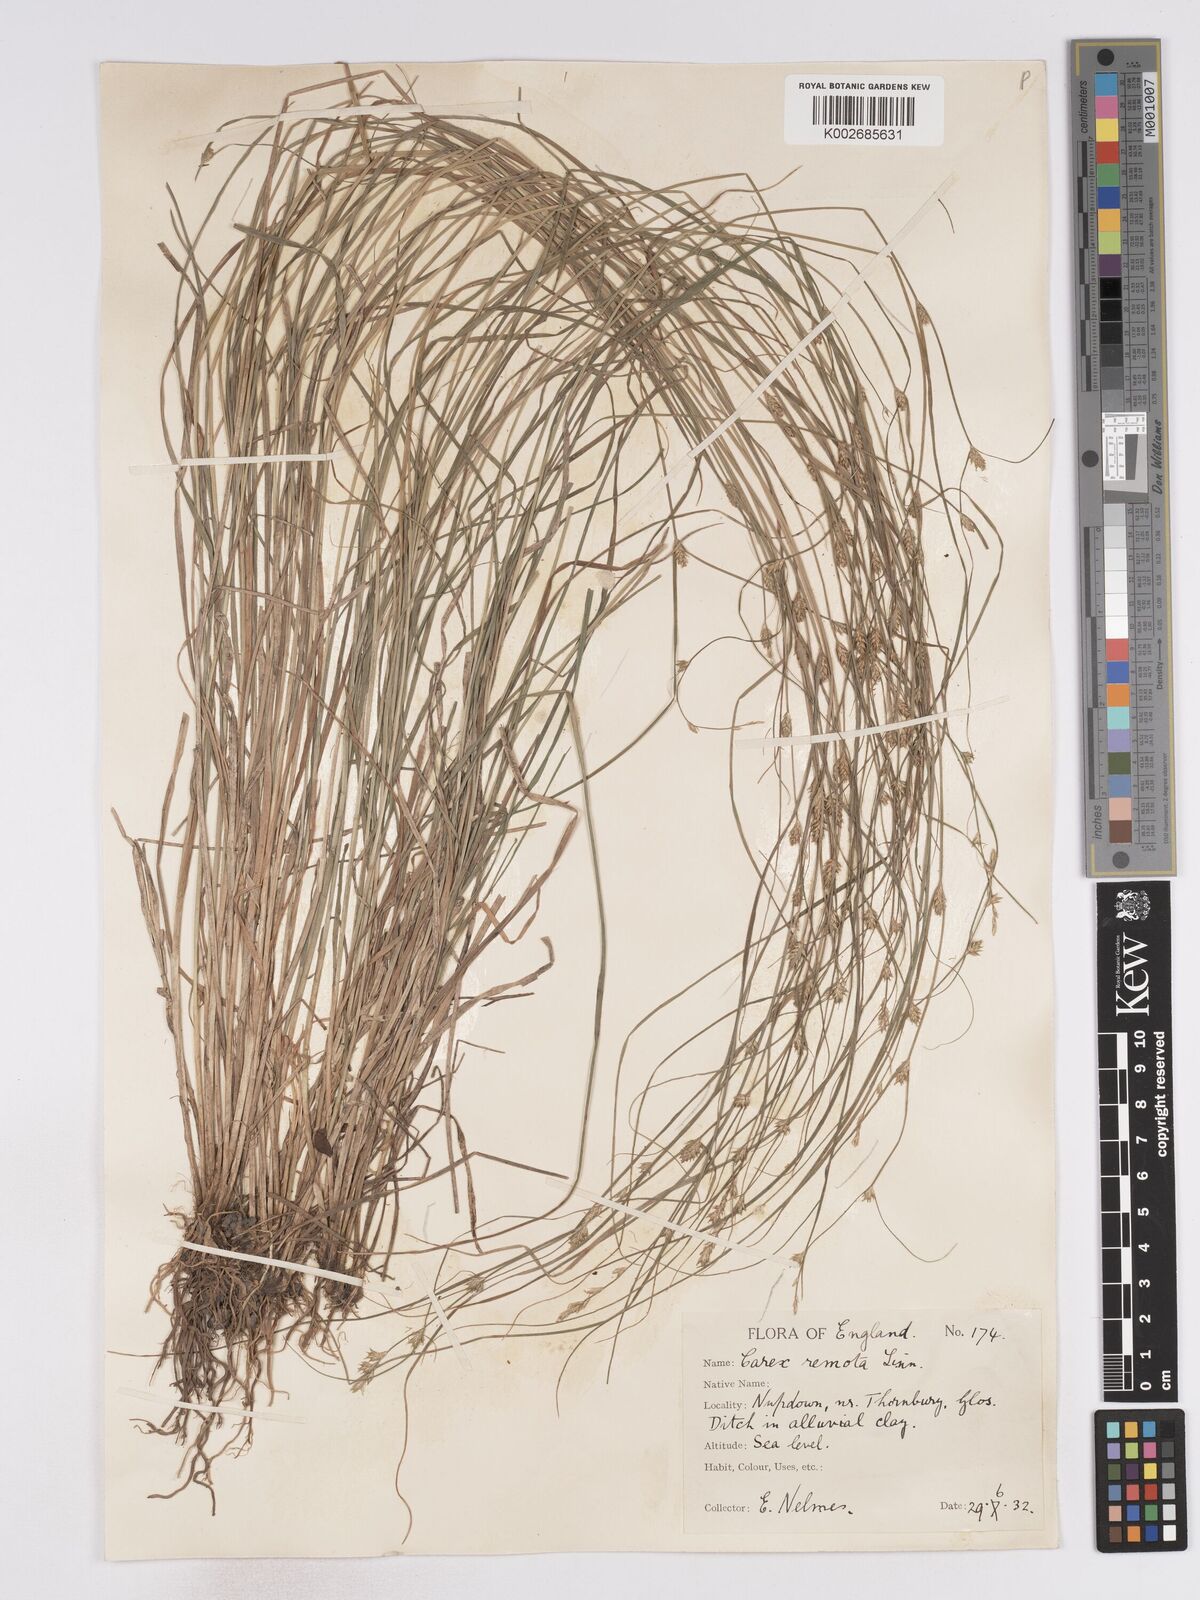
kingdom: Plantae
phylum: Tracheophyta
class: Liliopsida
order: Poales
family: Cyperaceae
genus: Carex
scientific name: Carex remota
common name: Remote sedge
